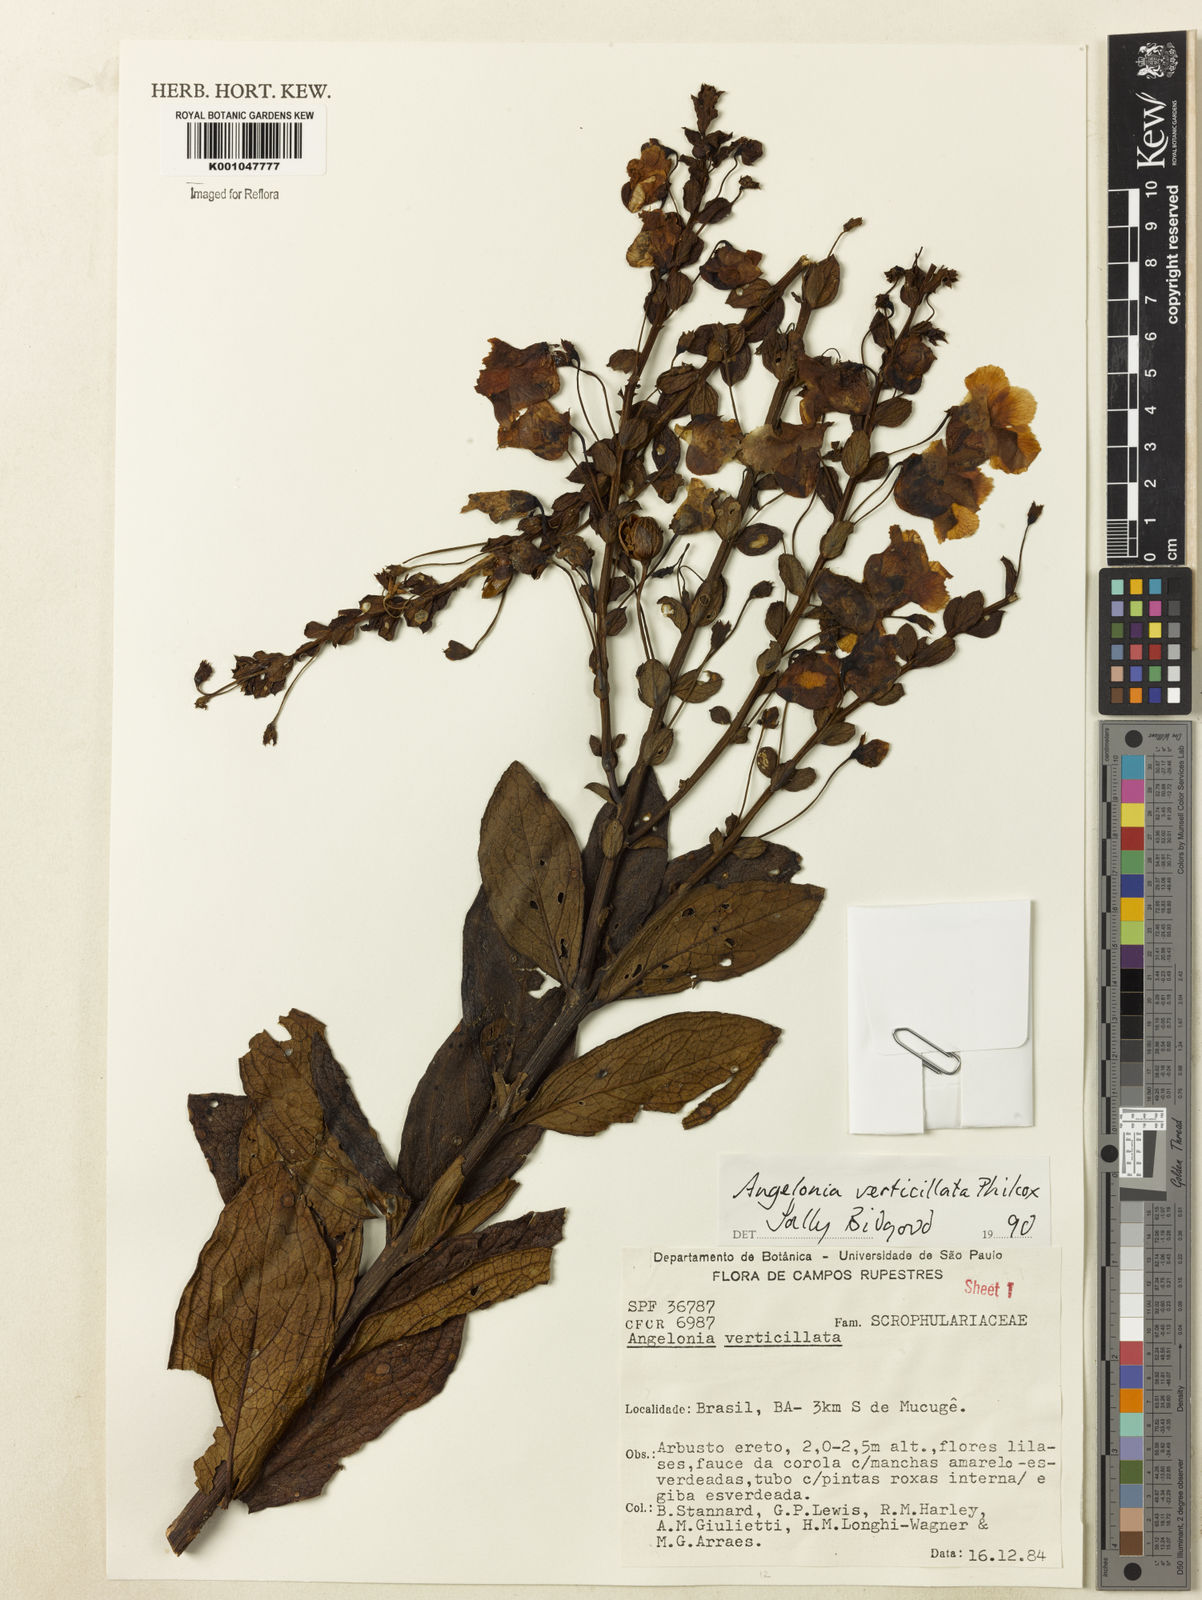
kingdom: Plantae
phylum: Tracheophyta
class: Magnoliopsida
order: Lamiales
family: Plantaginaceae
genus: Angelonia
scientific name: Angelonia verticillata
